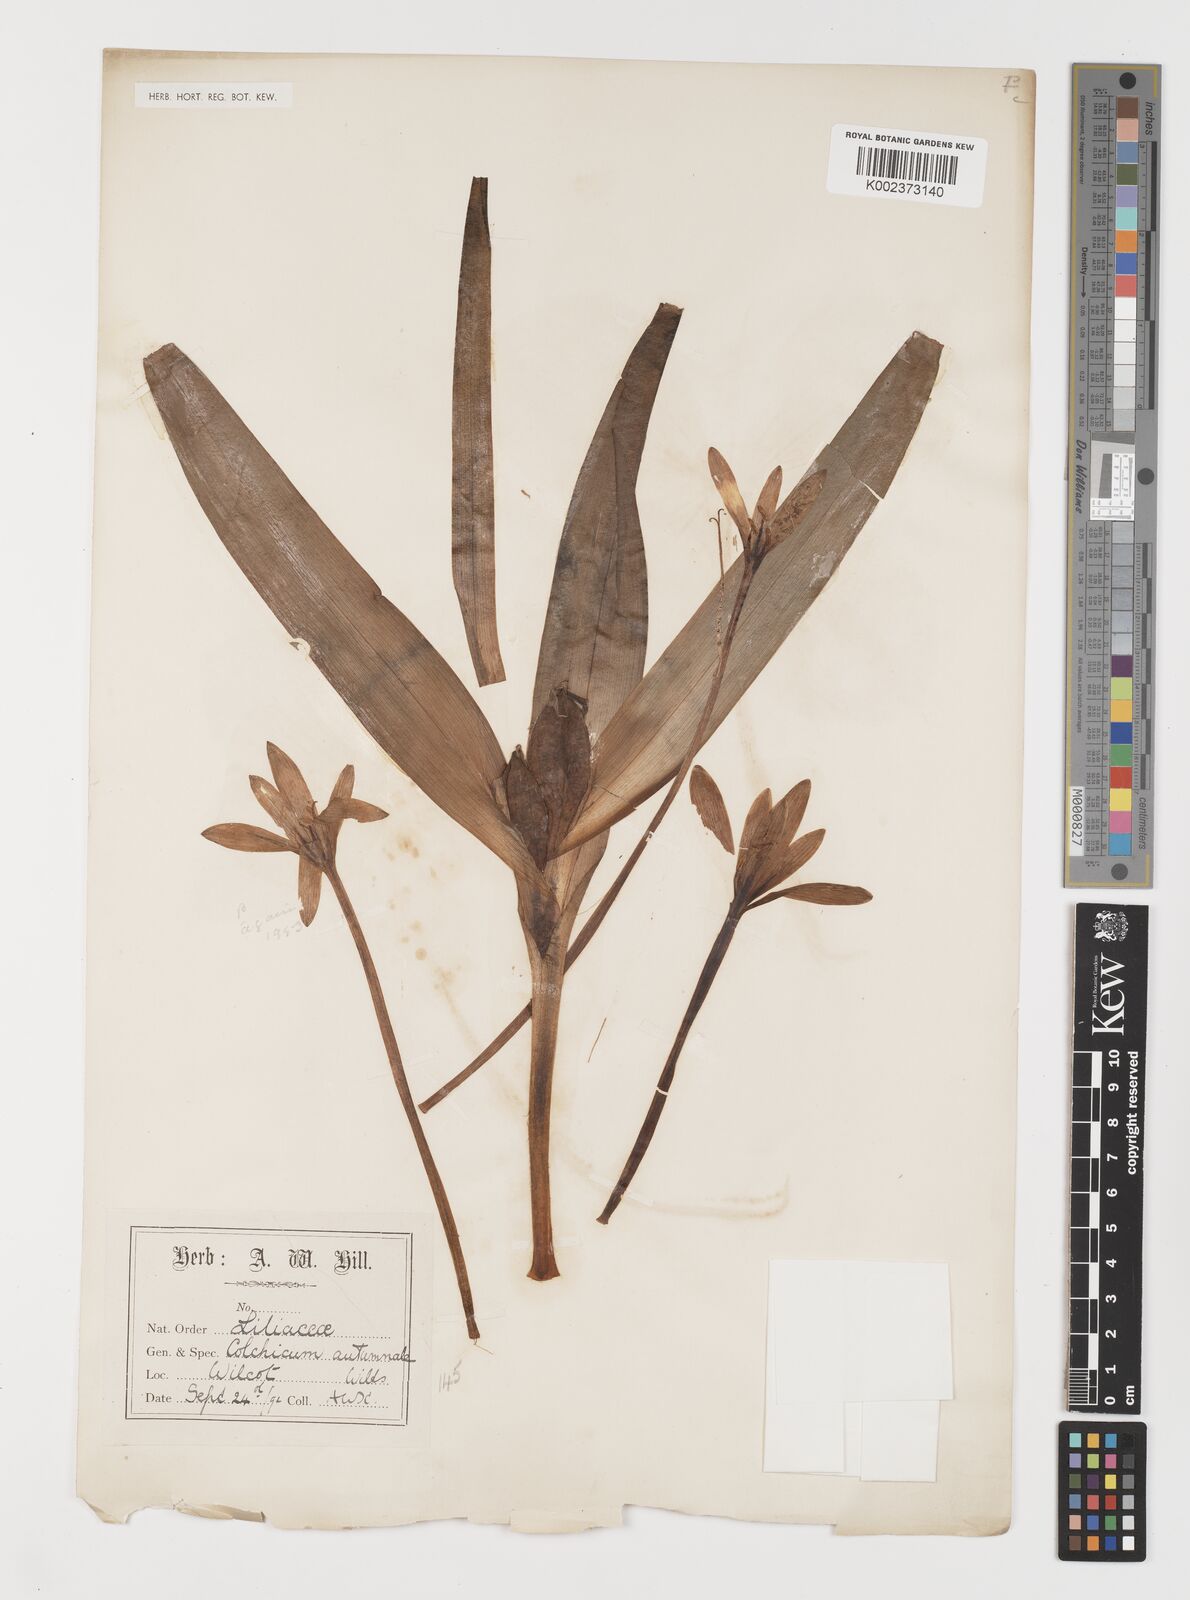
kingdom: Plantae
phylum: Tracheophyta
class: Liliopsida
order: Liliales
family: Colchicaceae
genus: Colchicum
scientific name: Colchicum autumnale
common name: Autumn crocus
